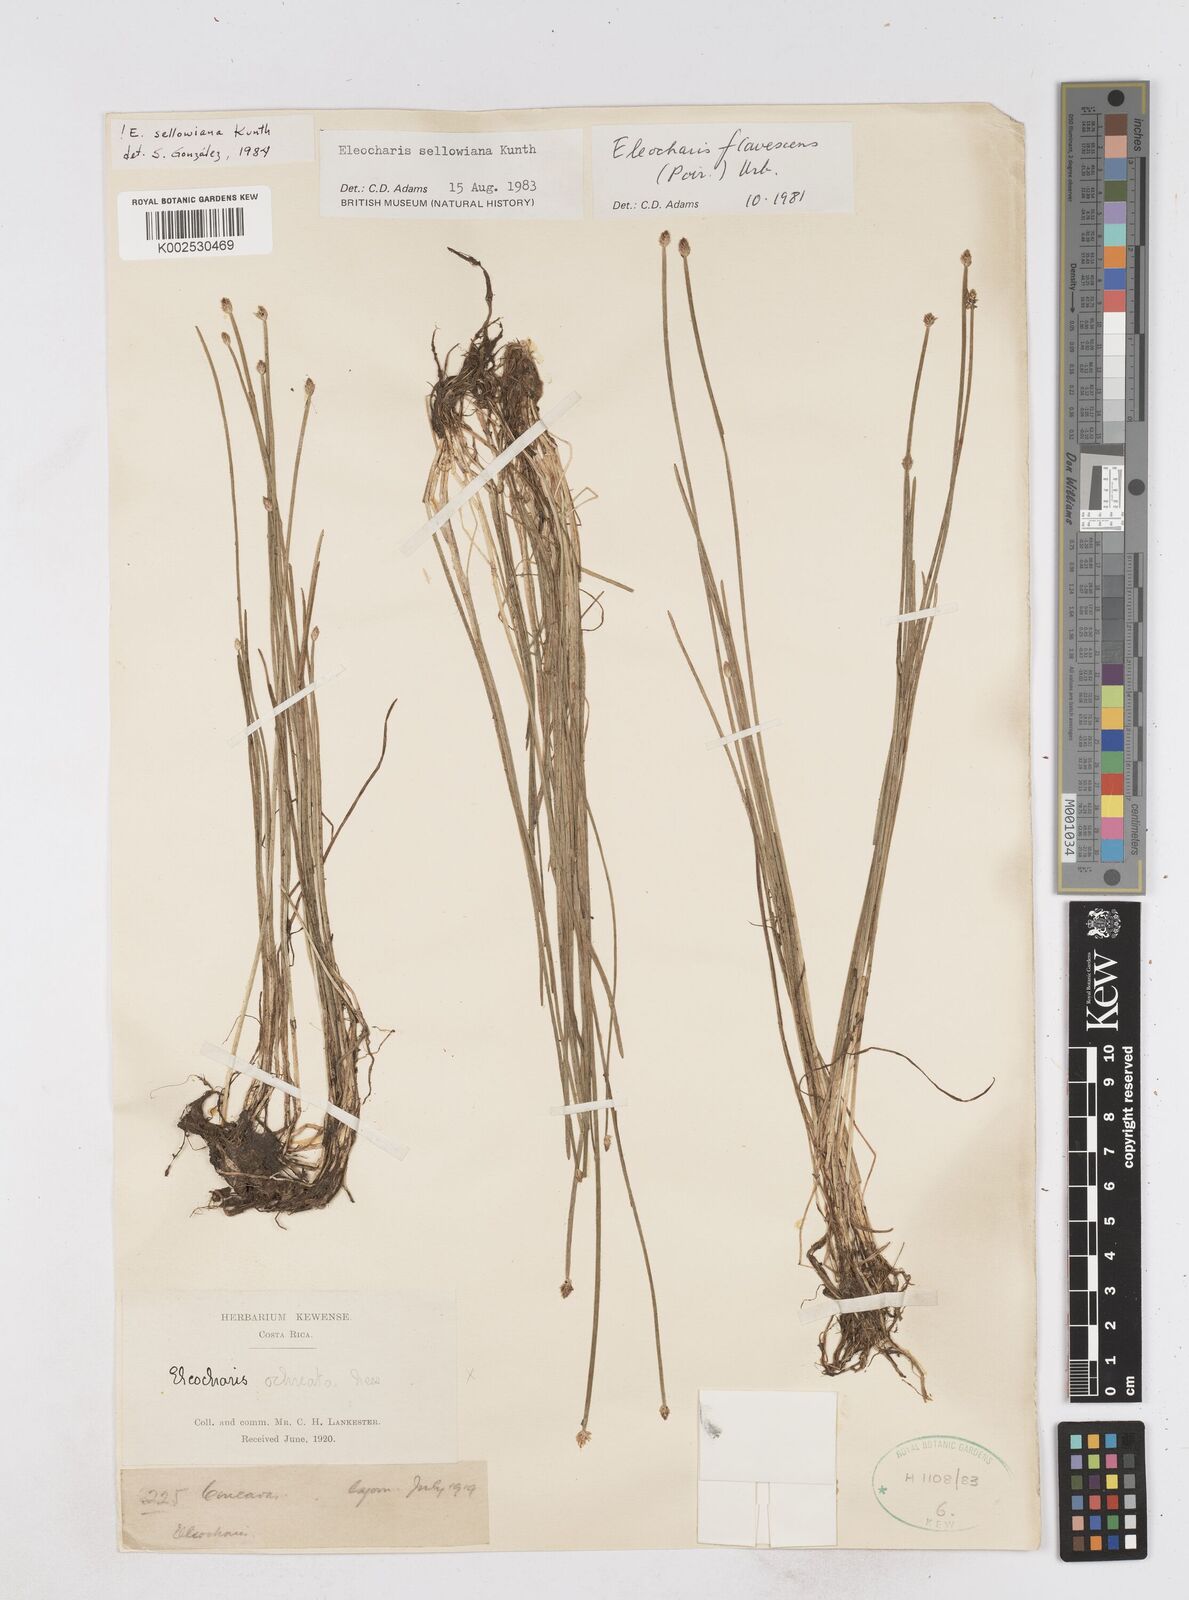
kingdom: Plantae
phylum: Tracheophyta
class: Liliopsida
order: Poales
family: Cyperaceae
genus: Eleocharis
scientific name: Eleocharis sellowiana
